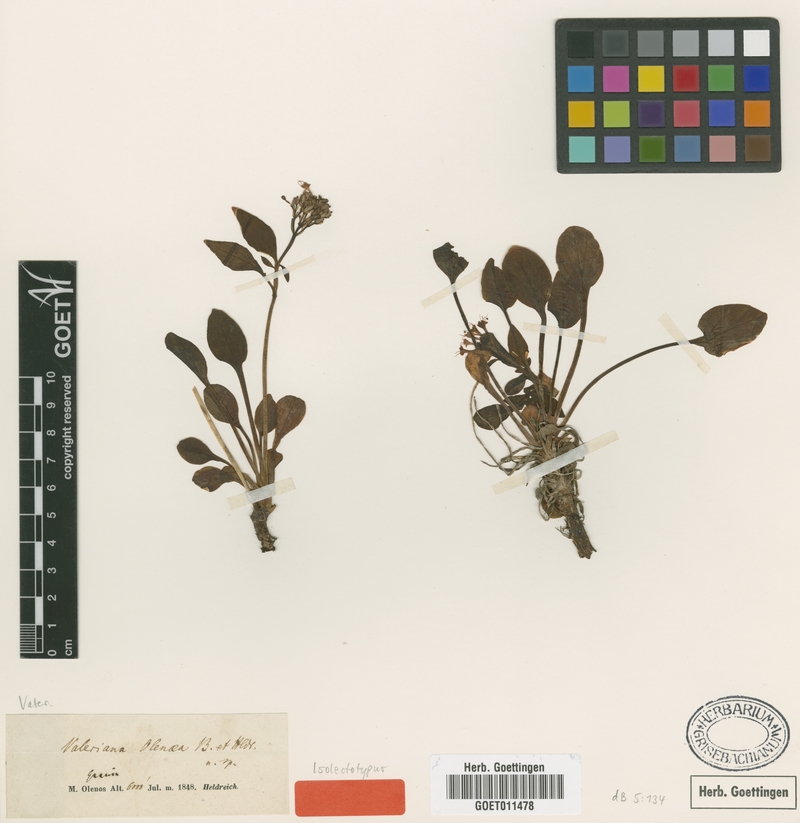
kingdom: Plantae
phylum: Tracheophyta
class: Magnoliopsida
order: Dipsacales
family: Caprifoliaceae
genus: Valeriana
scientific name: Valeriana olenaea
